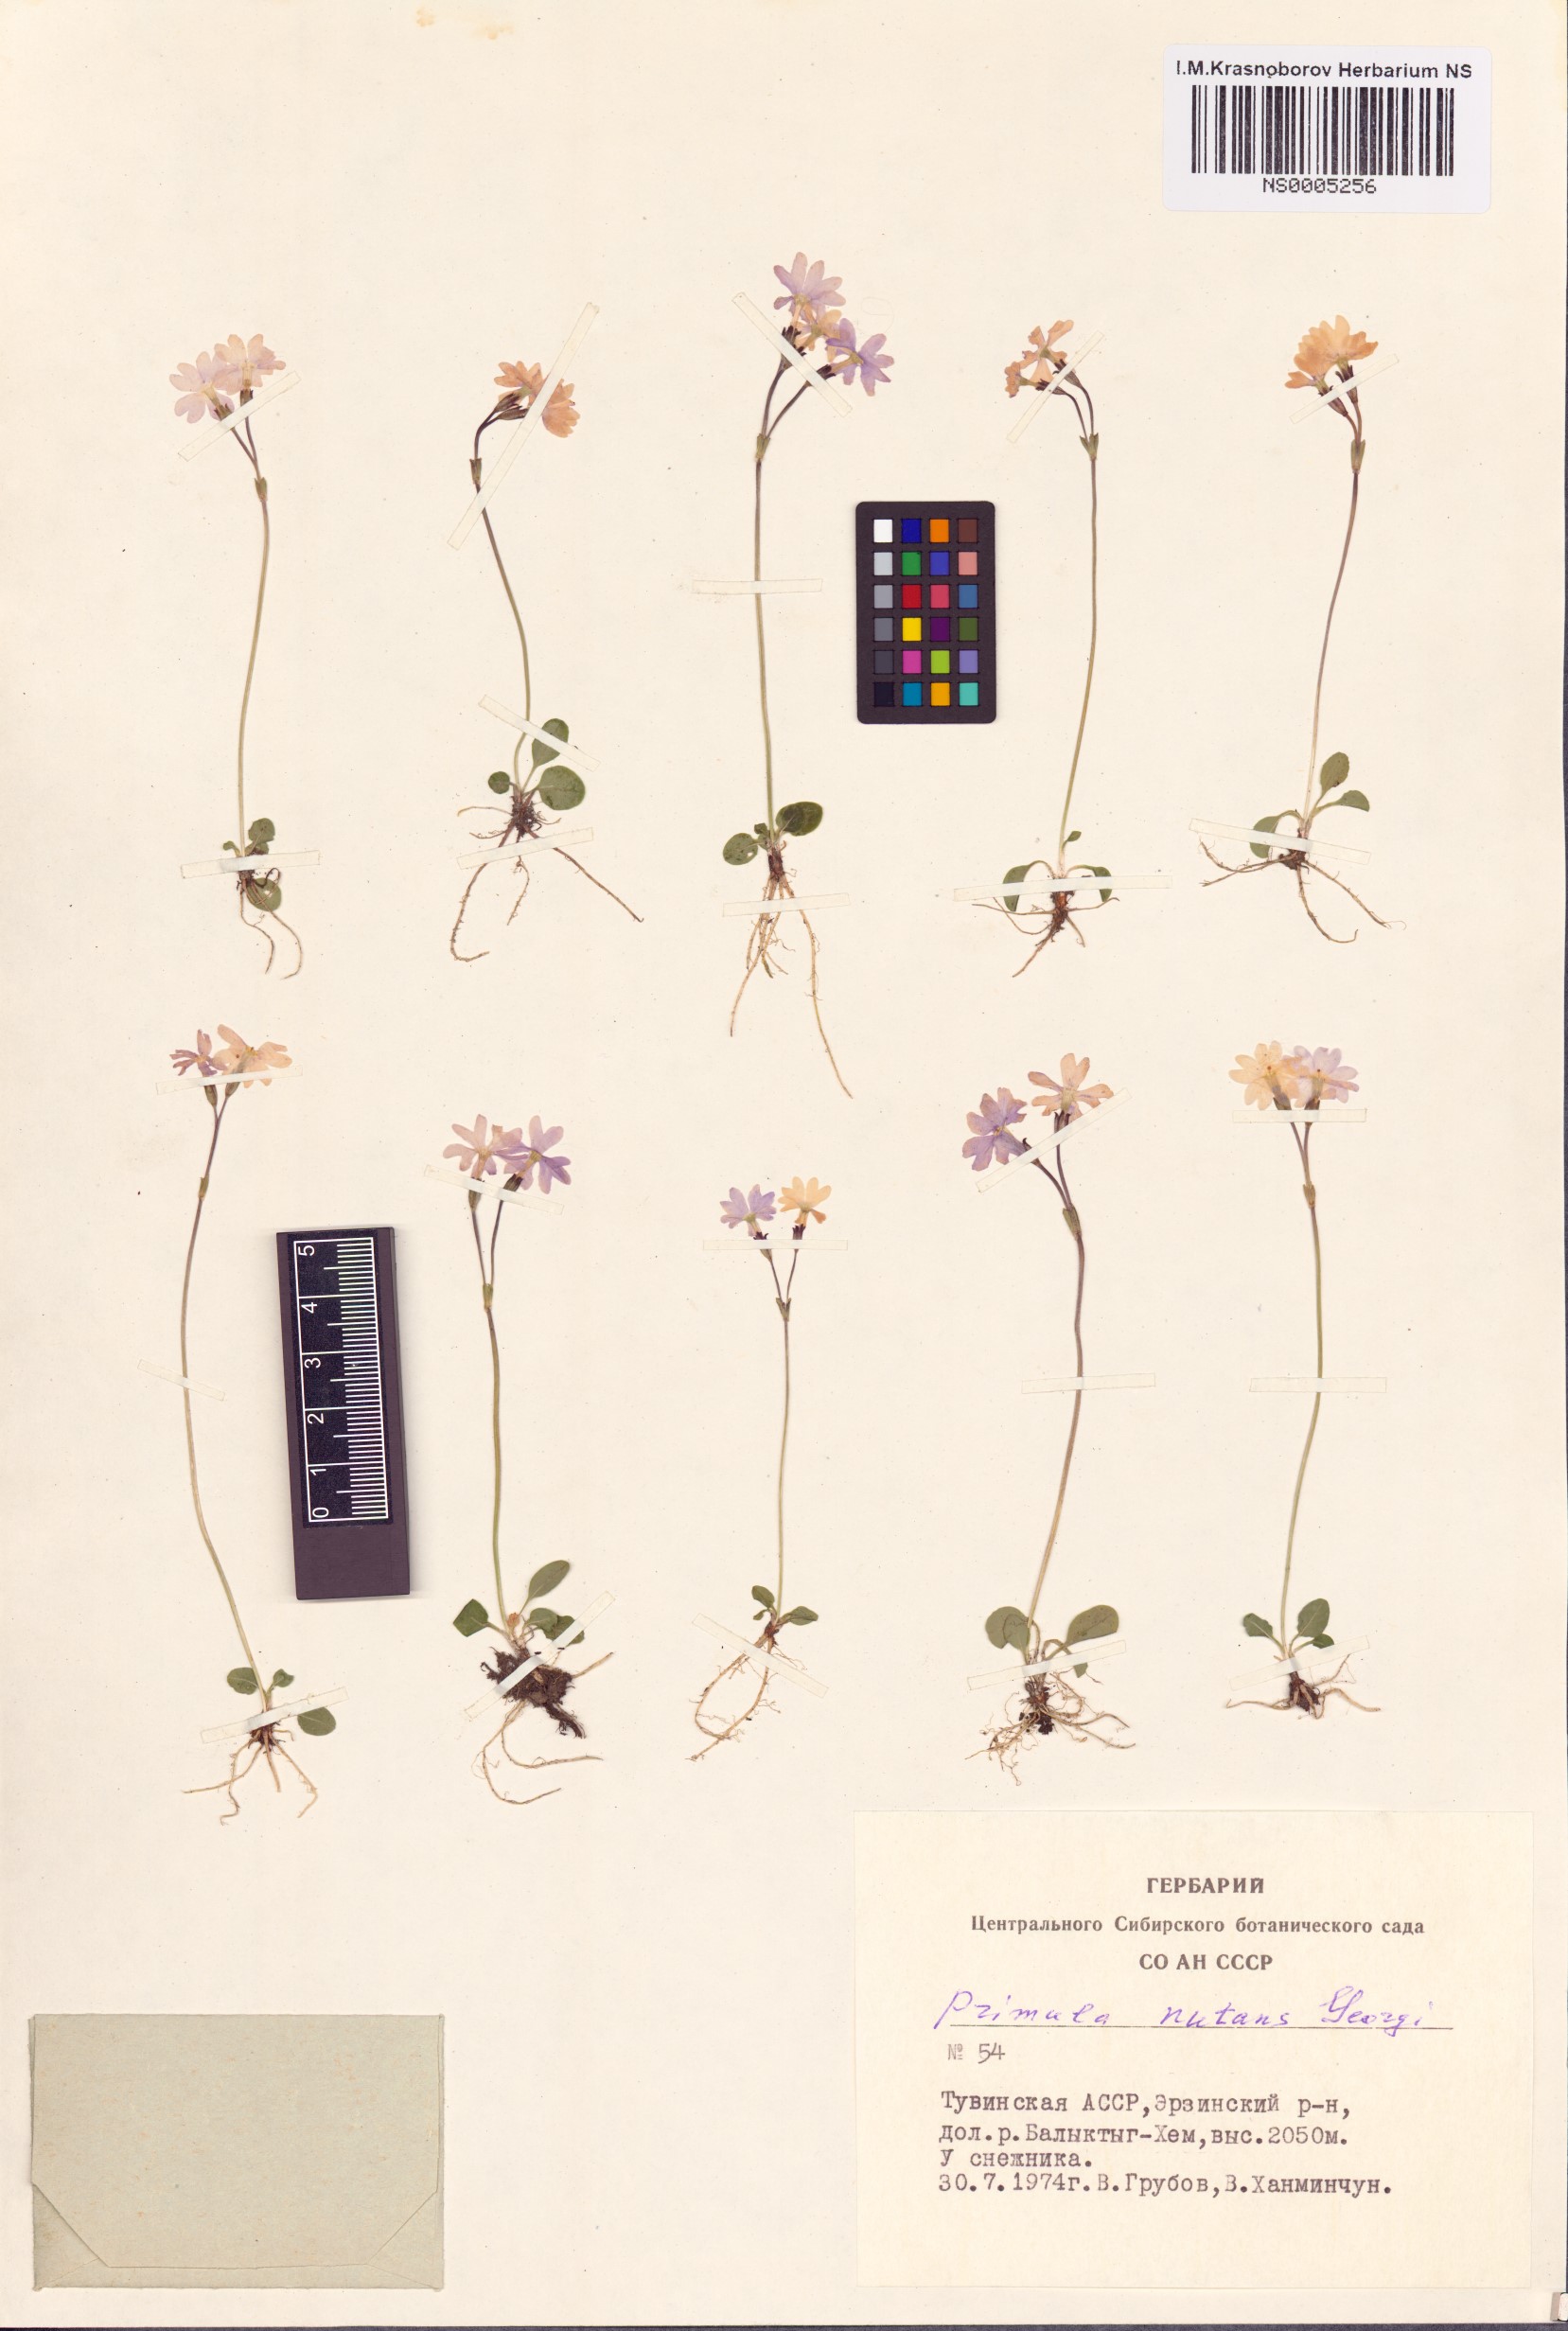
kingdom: Plantae
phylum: Tracheophyta
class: Magnoliopsida
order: Ericales
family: Primulaceae
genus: Primula
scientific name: Primula nutans
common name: Siberian primrose
